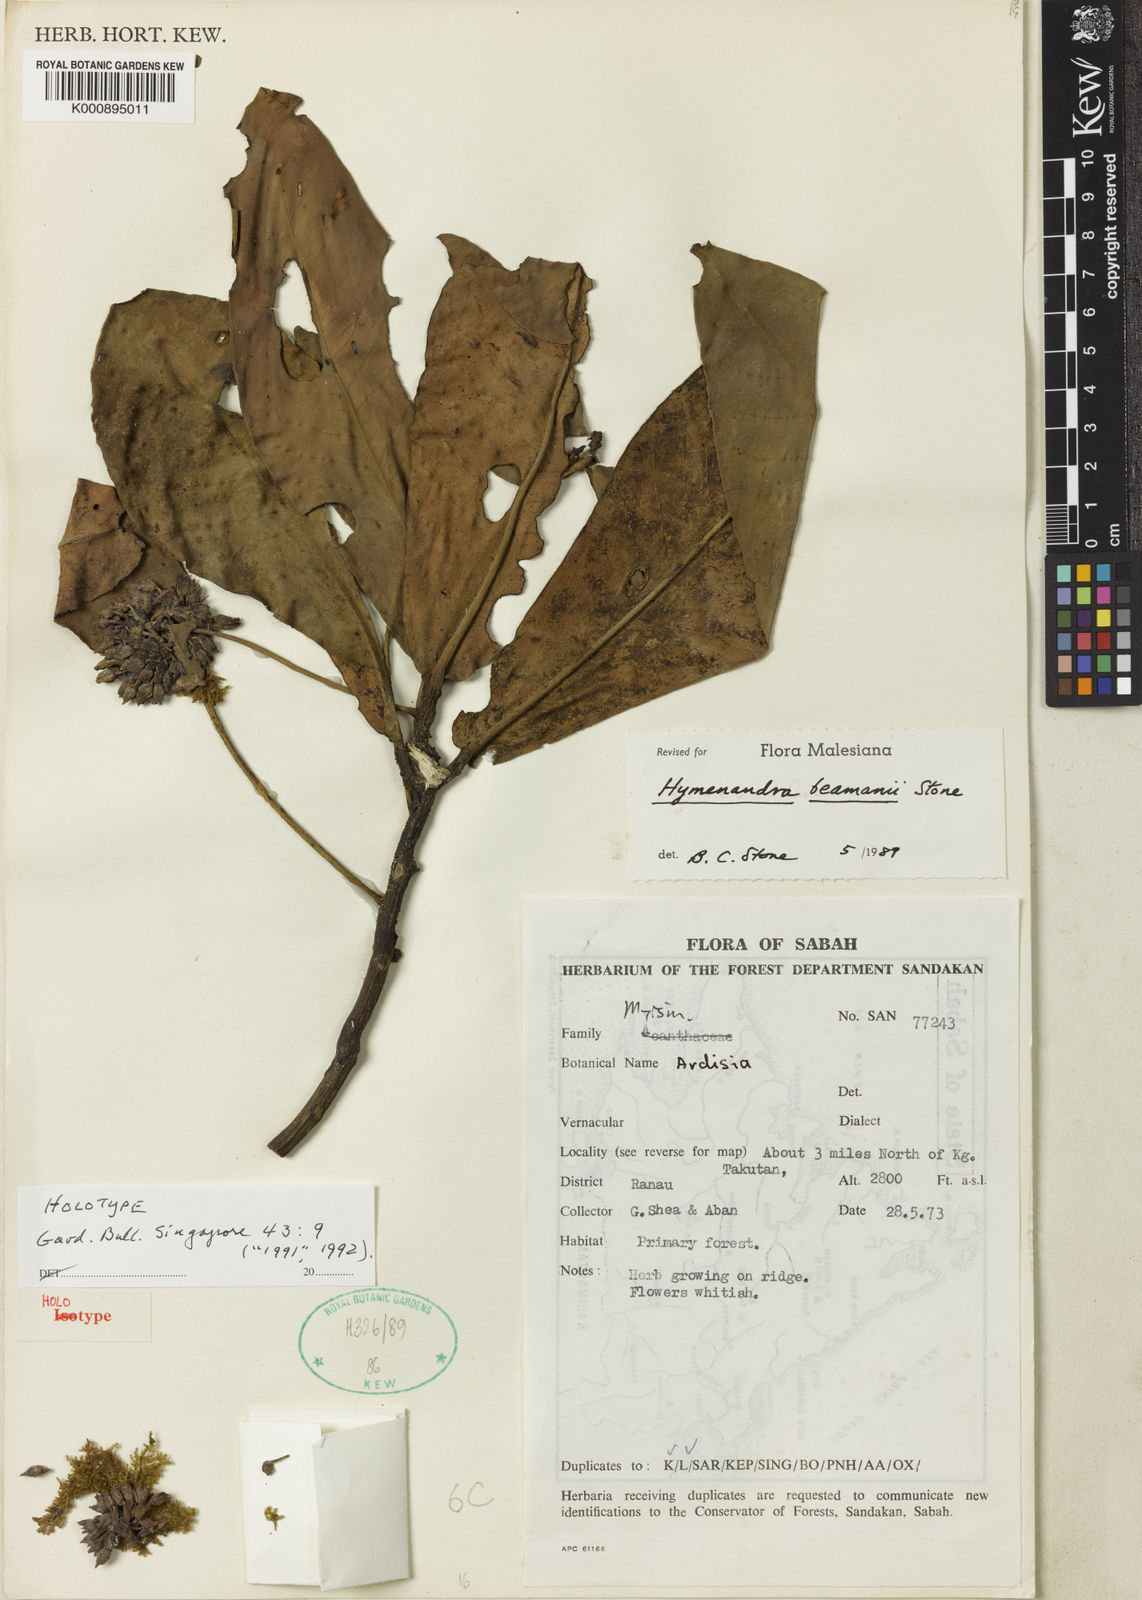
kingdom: Plantae
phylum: Tracheophyta
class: Magnoliopsida
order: Ericales
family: Primulaceae
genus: Hymenandra
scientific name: Hymenandra beamanii
